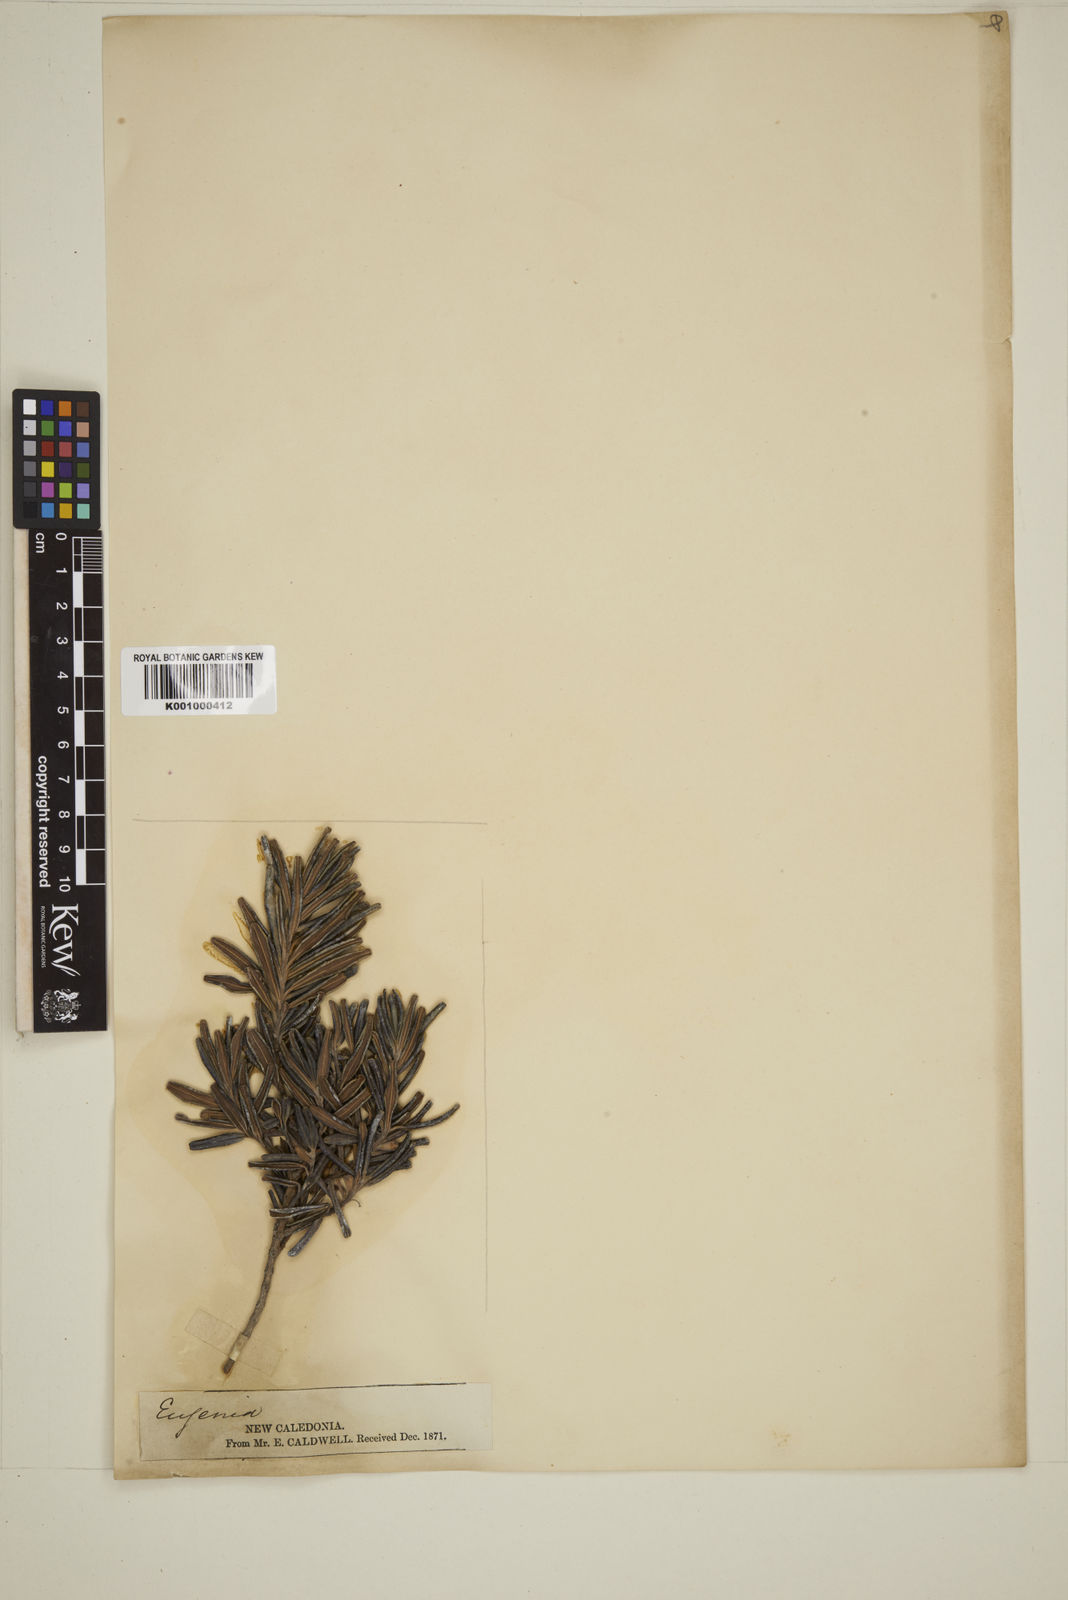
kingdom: Plantae
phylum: Tracheophyta
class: Magnoliopsida
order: Myrtales
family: Myrtaceae
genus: Eugenia
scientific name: Eugenia
